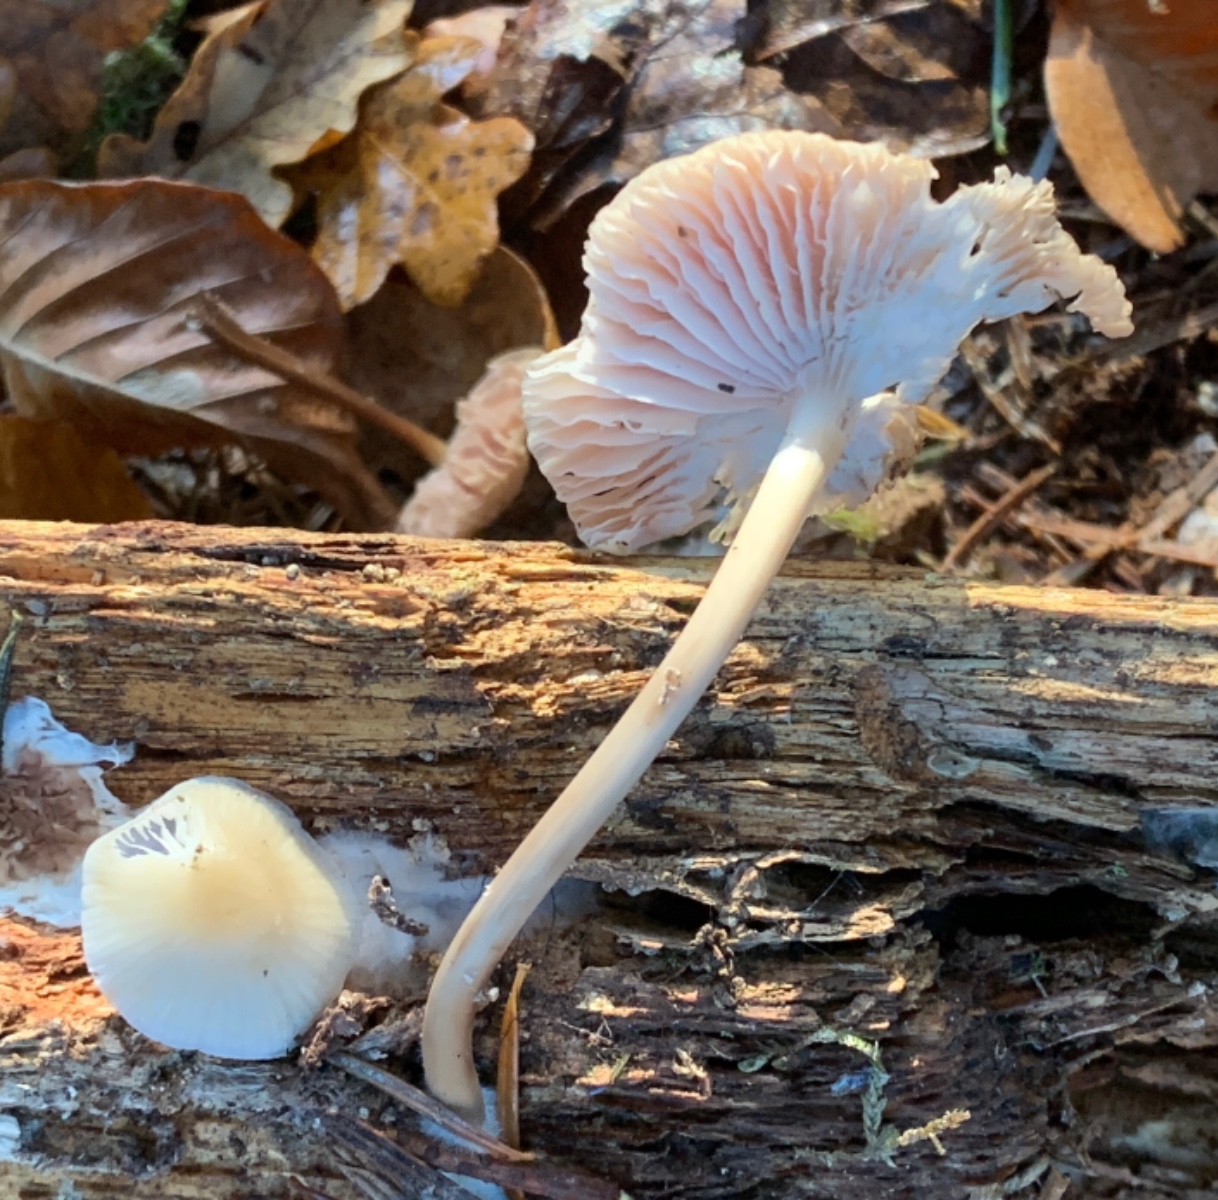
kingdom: Fungi
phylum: Basidiomycota
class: Agaricomycetes
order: Agaricales
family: Mycenaceae
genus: Mycena
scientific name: Mycena galericulata
